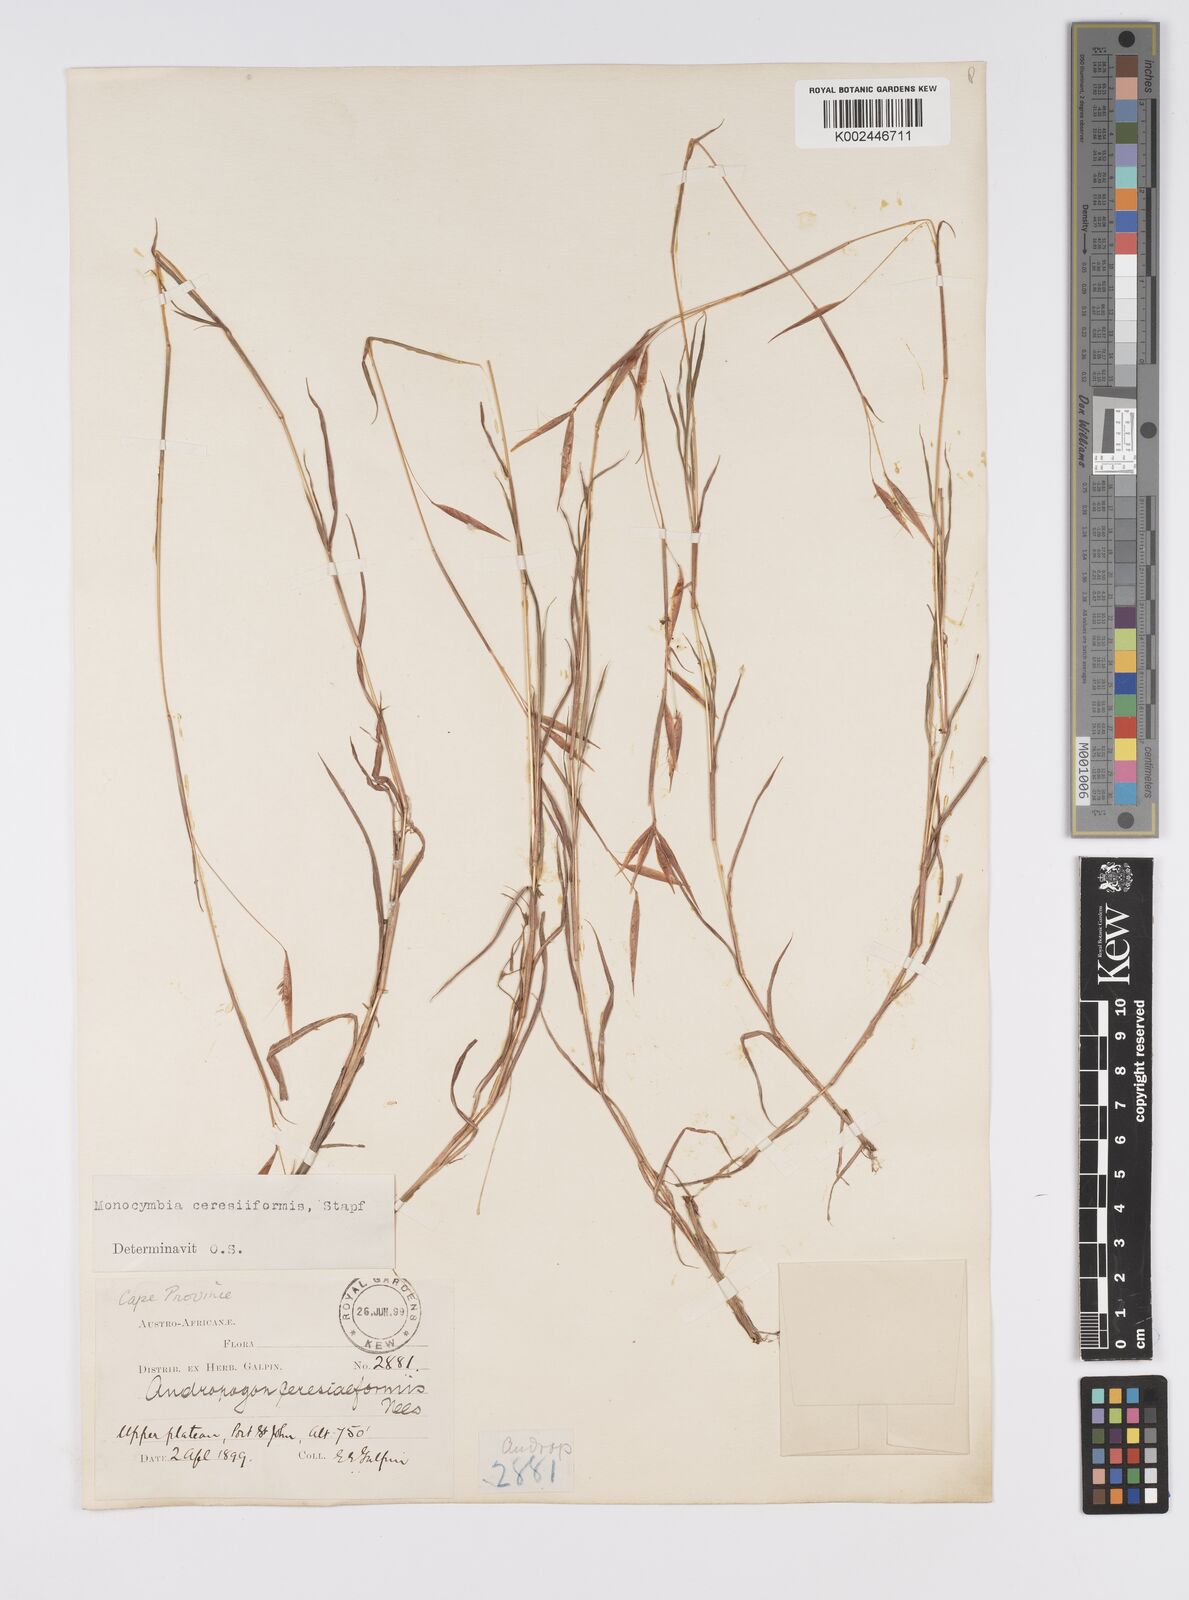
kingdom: Plantae
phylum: Tracheophyta
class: Liliopsida
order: Poales
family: Poaceae
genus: Monocymbium
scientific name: Monocymbium ceresiiforme
